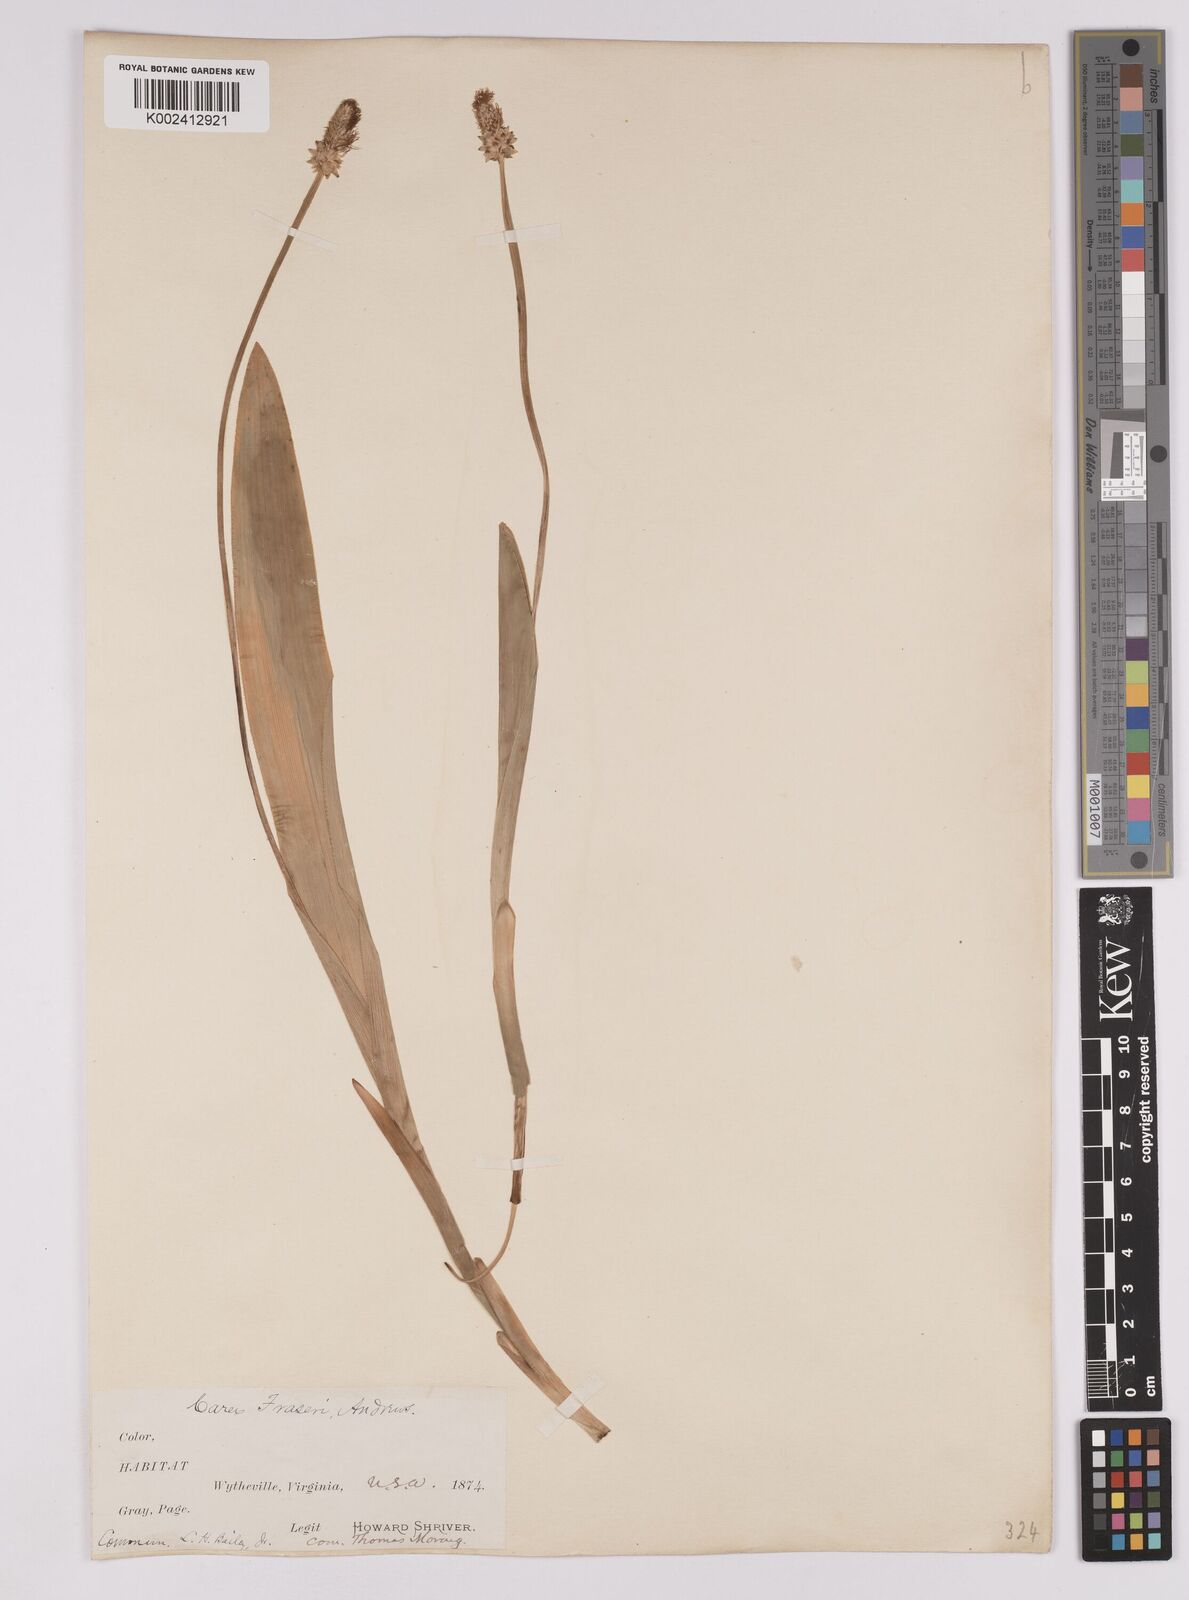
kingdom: Plantae
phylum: Tracheophyta
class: Liliopsida
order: Poales
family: Cyperaceae
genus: Carex
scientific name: Carex fraseriana
